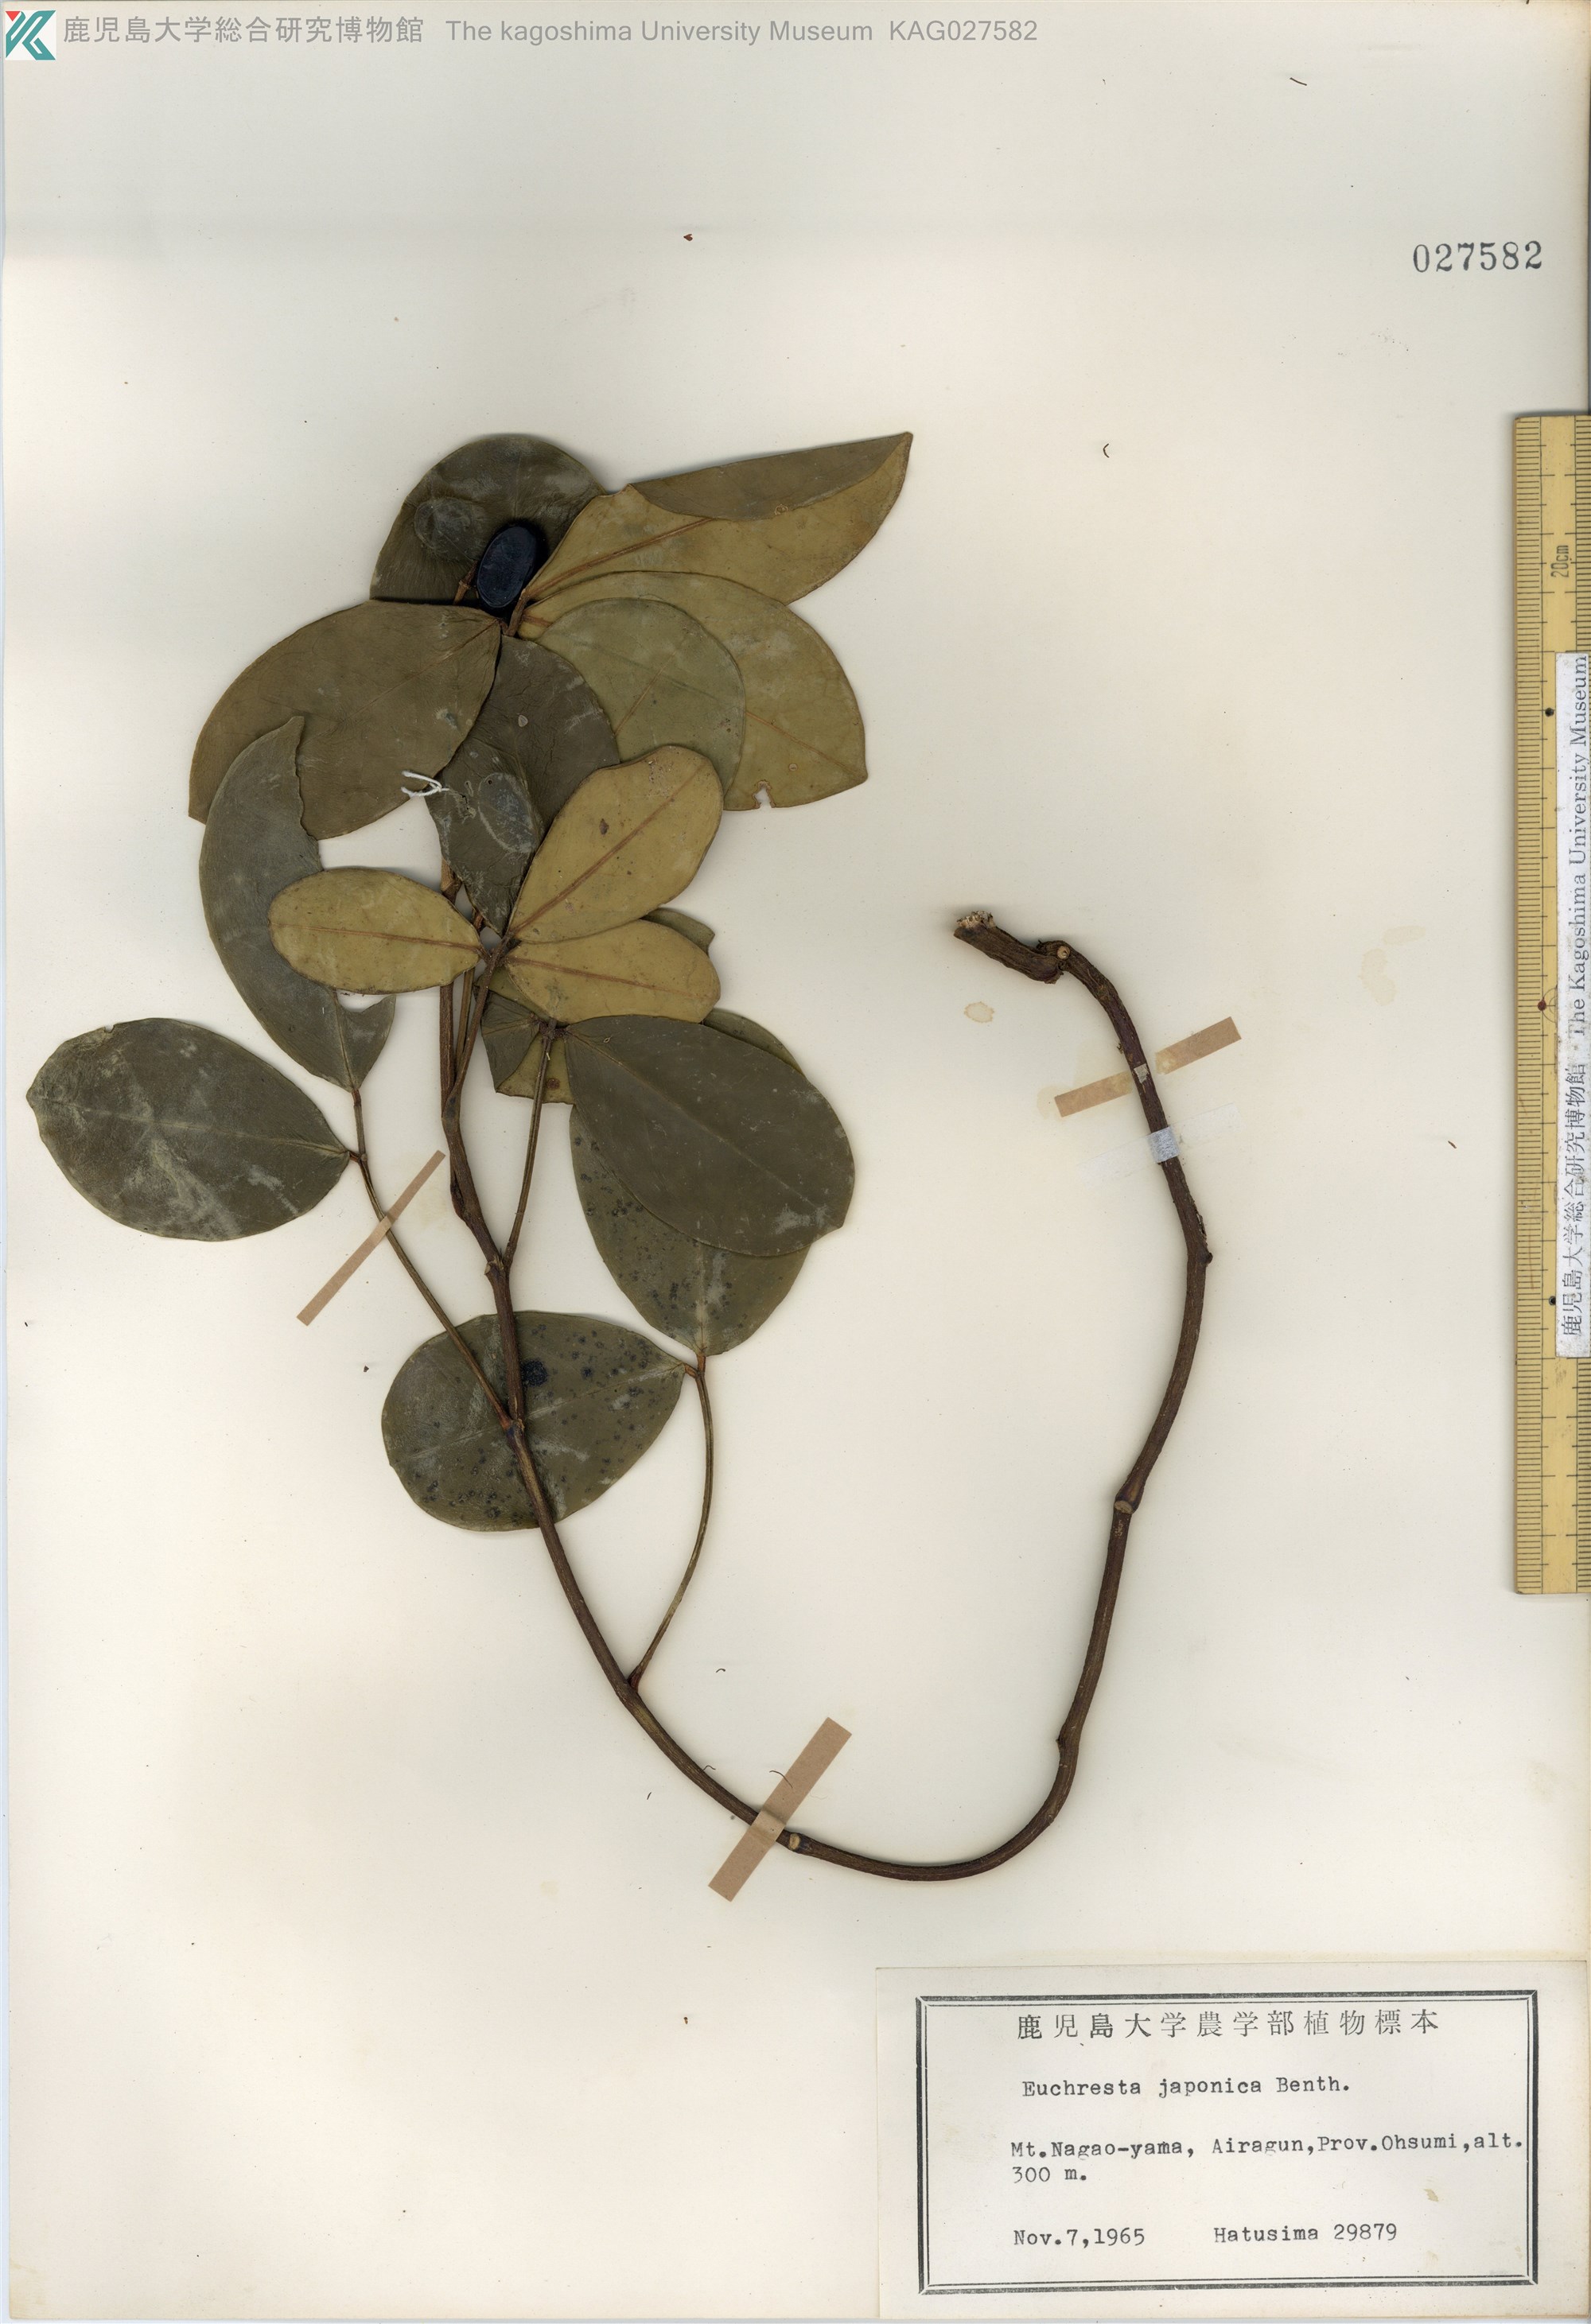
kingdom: Plantae
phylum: Tracheophyta
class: Magnoliopsida
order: Fabales
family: Fabaceae
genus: Euchresta
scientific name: Euchresta japonica
